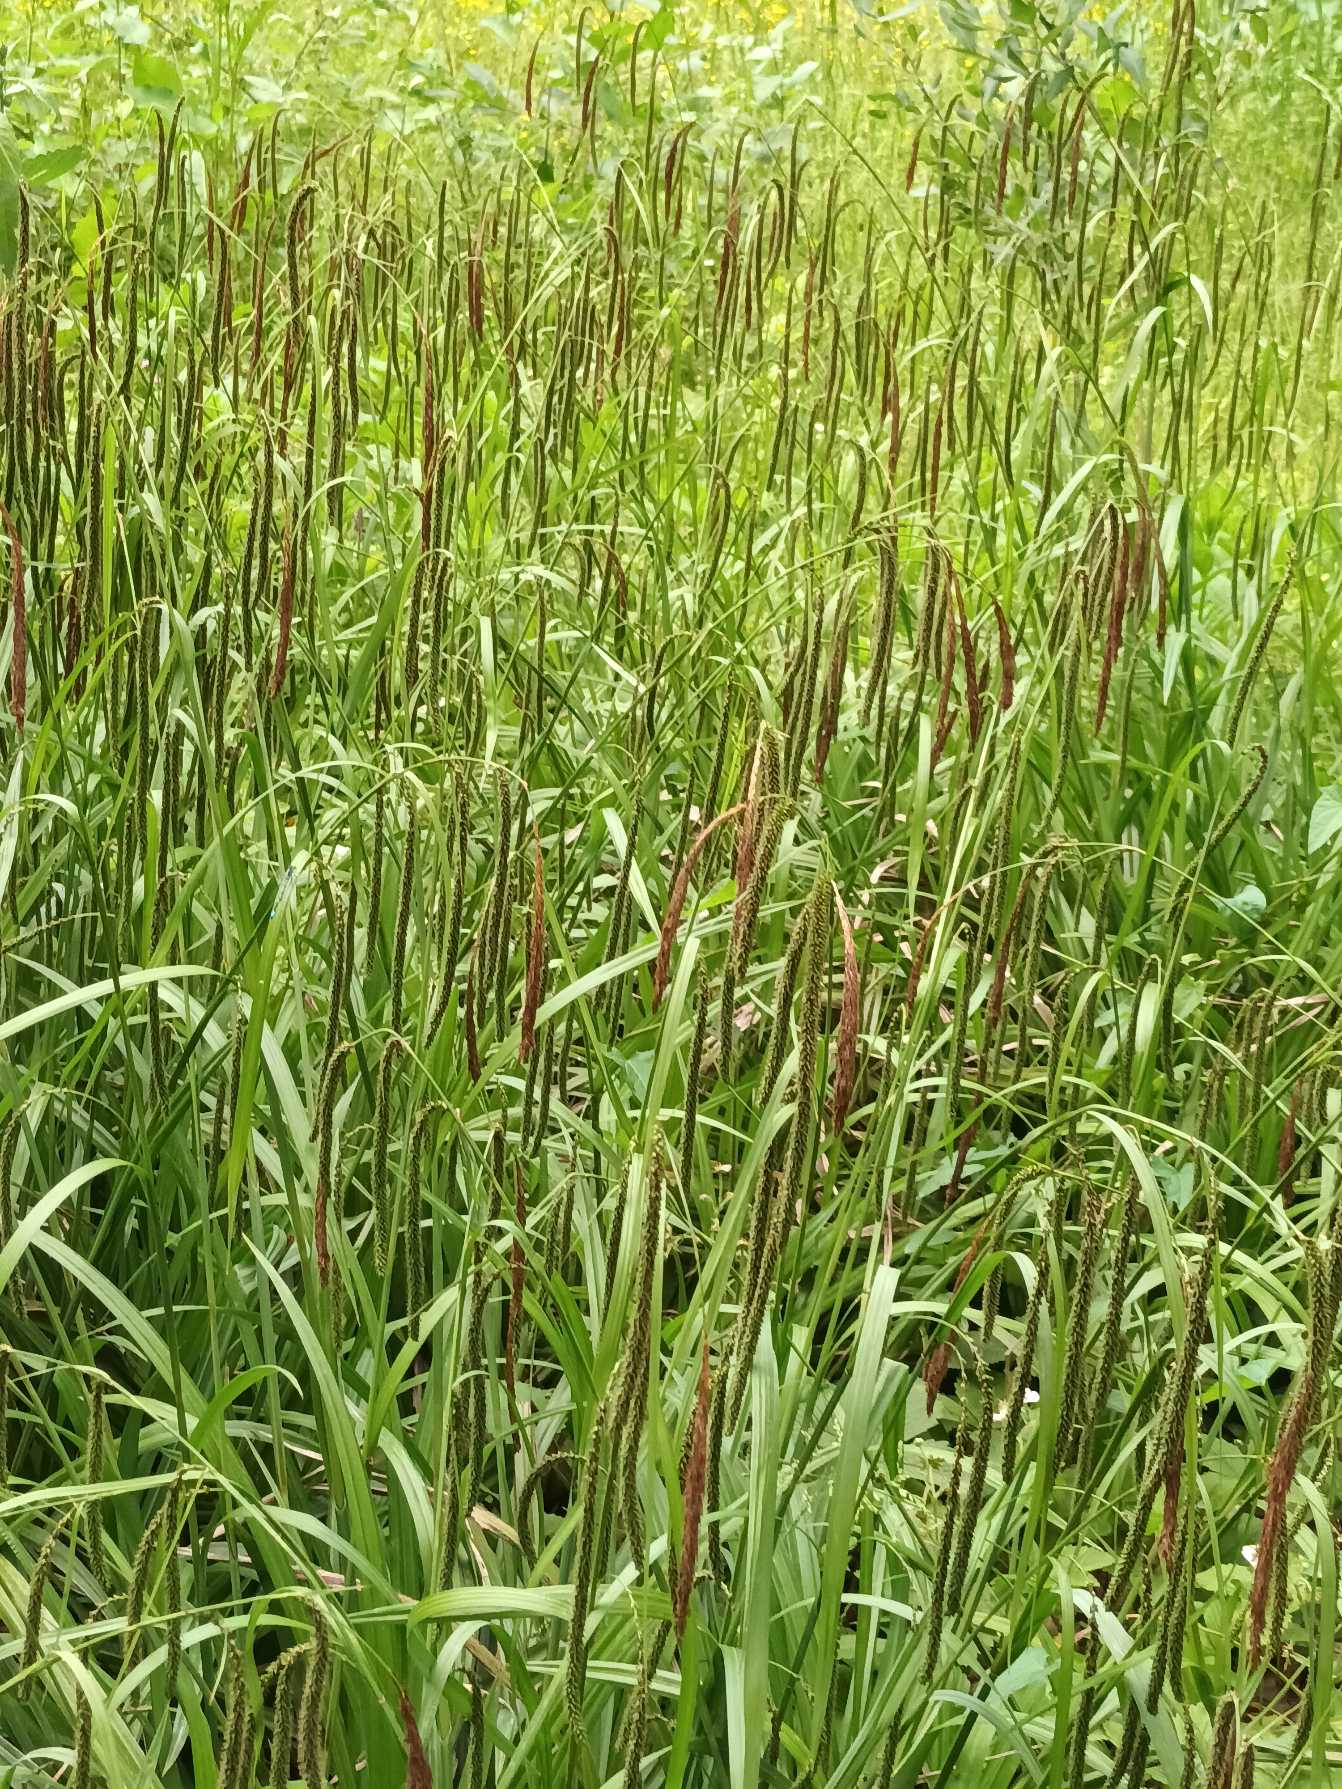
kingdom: Plantae
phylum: Tracheophyta
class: Liliopsida
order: Poales
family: Cyperaceae
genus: Carex
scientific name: Carex pendula
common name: Kæmpe-star
